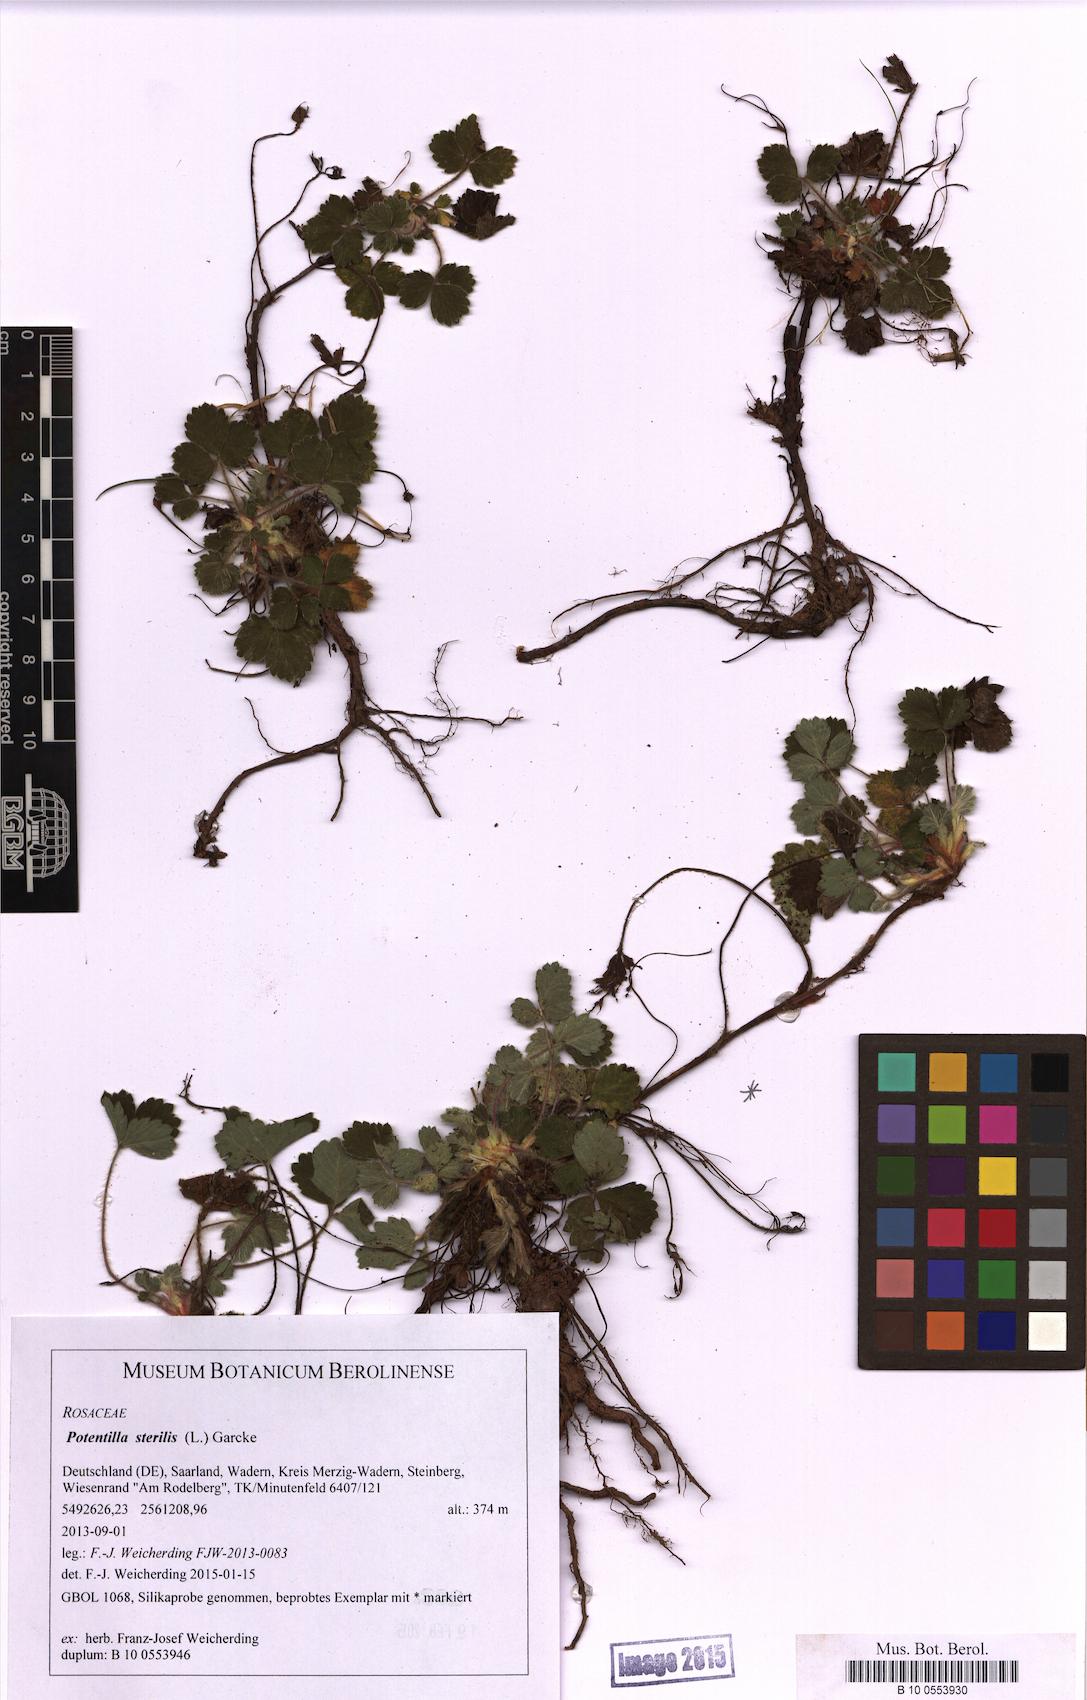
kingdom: Plantae
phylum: Tracheophyta
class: Magnoliopsida
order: Rosales
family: Rosaceae
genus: Potentilla
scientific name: Potentilla sterilis
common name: Barren strawberry
